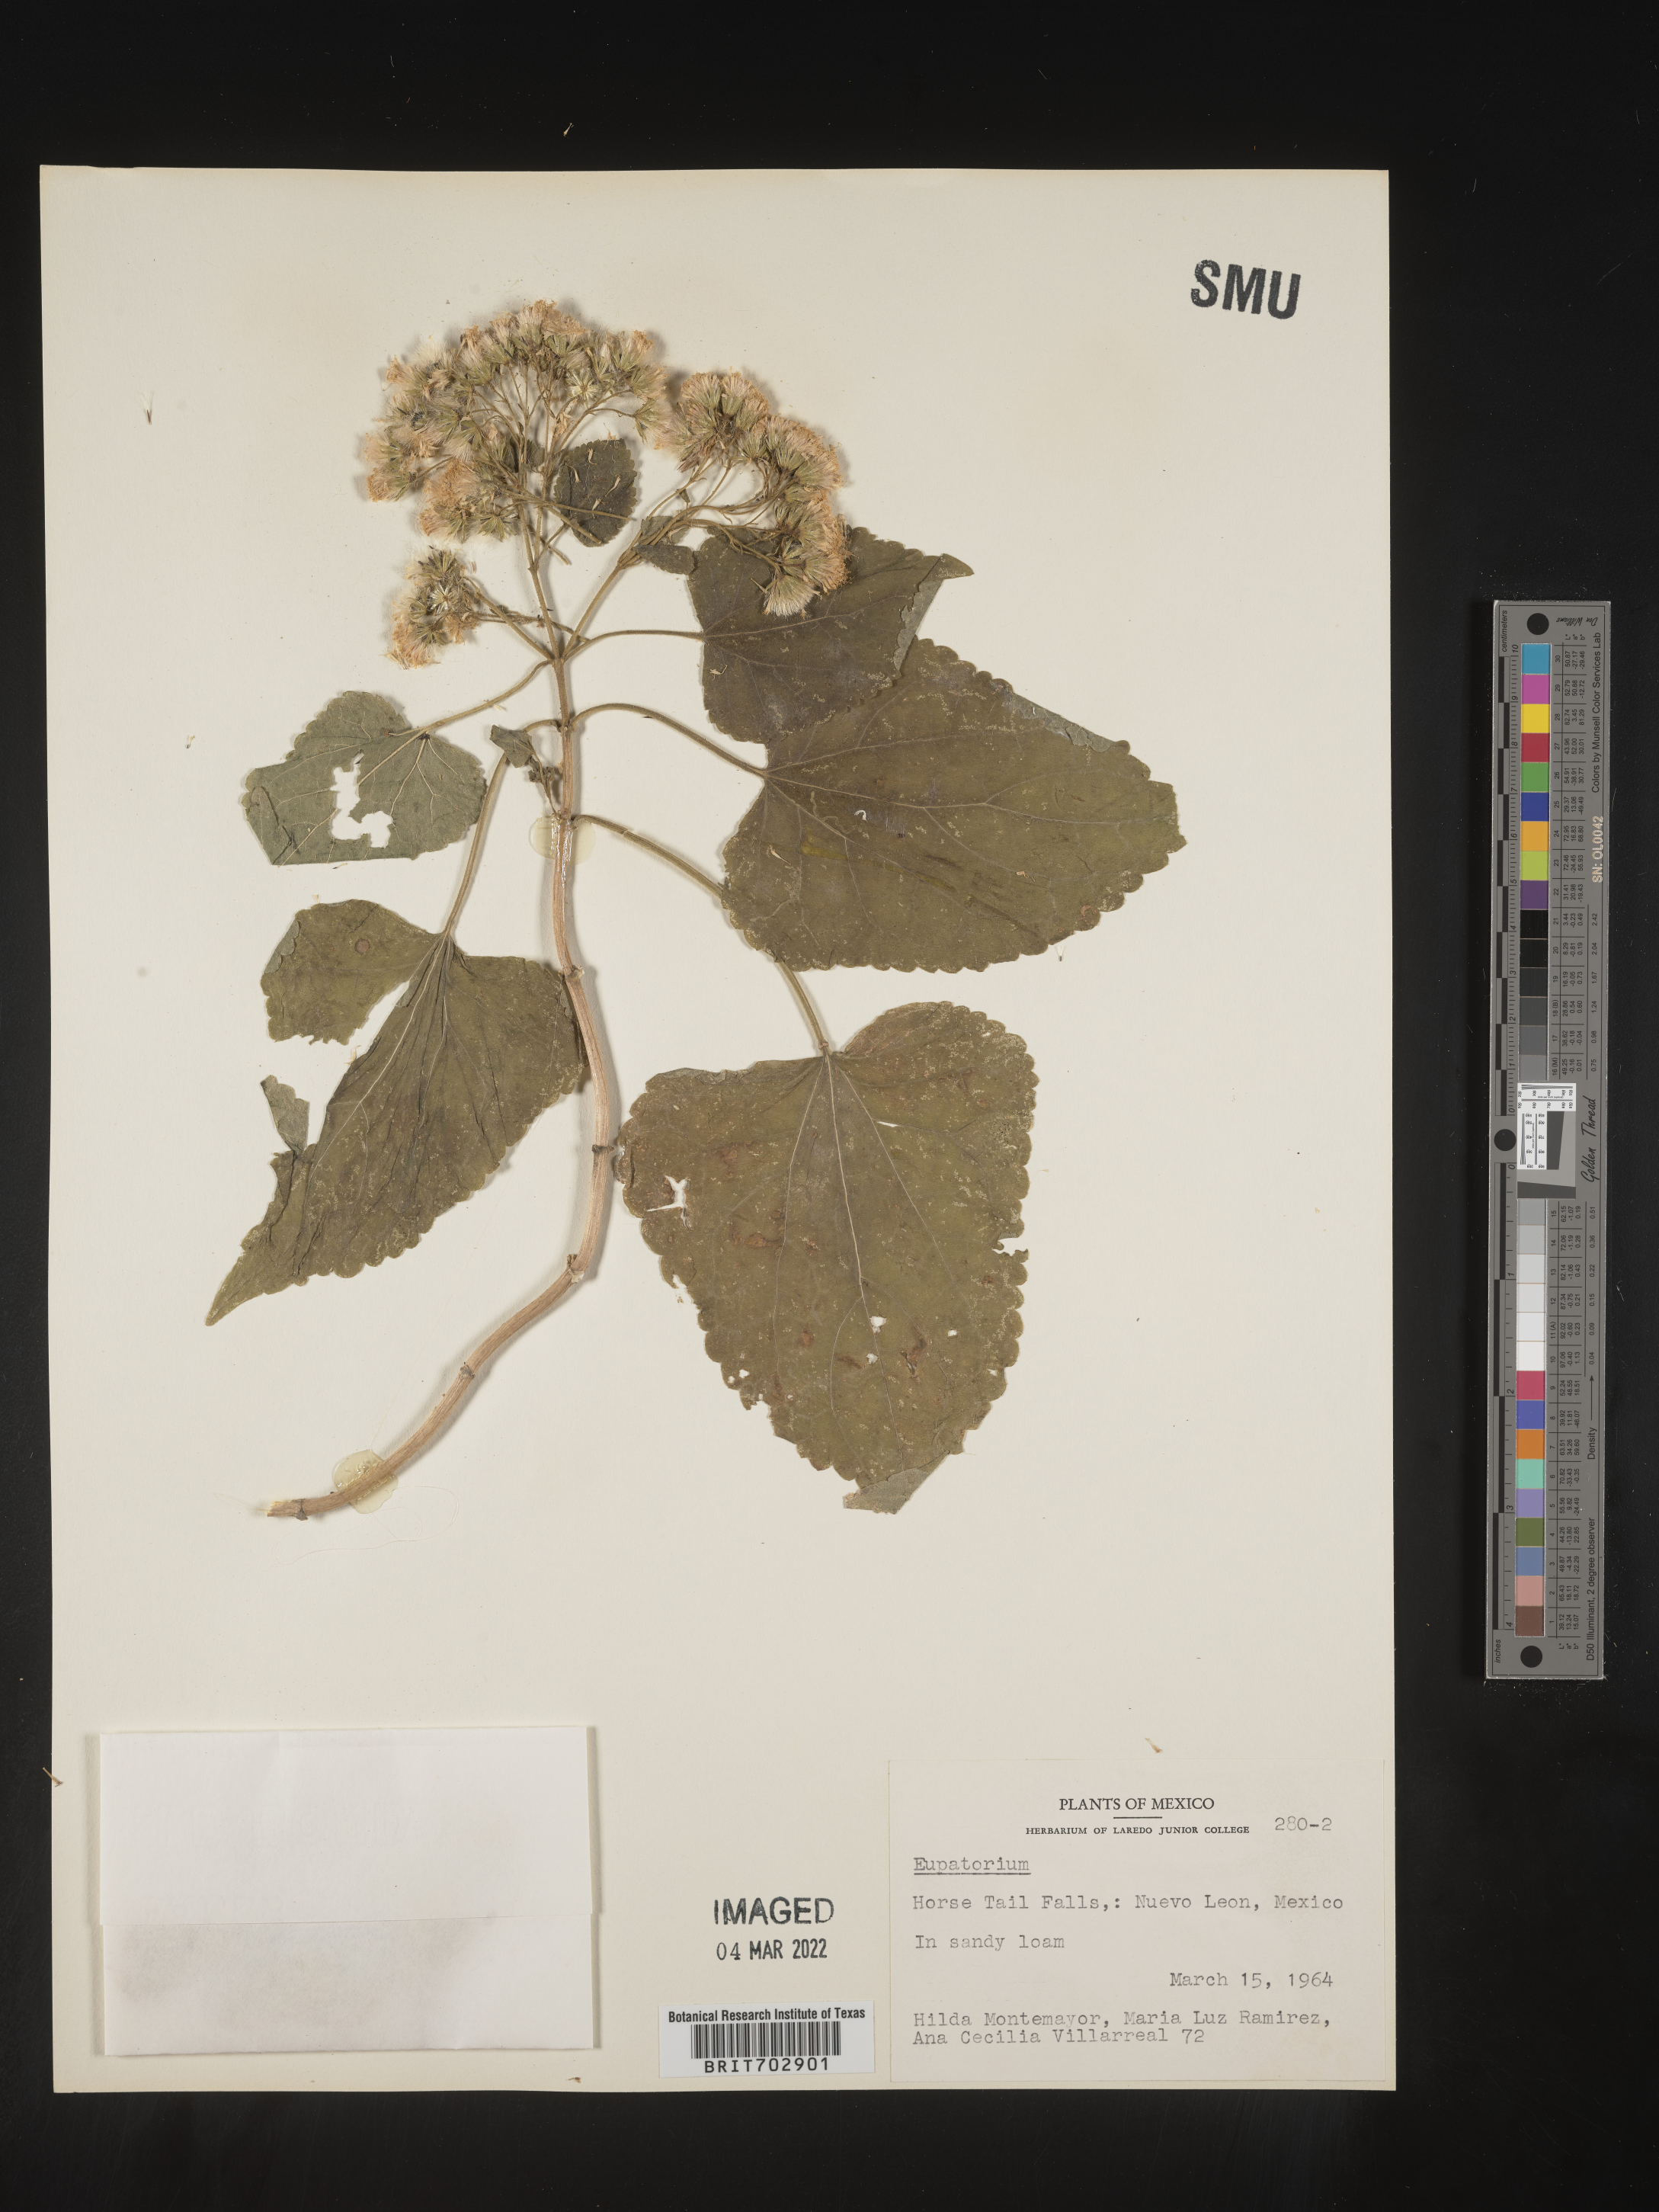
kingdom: Plantae
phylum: Tracheophyta
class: Magnoliopsida
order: Asterales
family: Asteraceae
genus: Eupatorium
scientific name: Eupatorium
